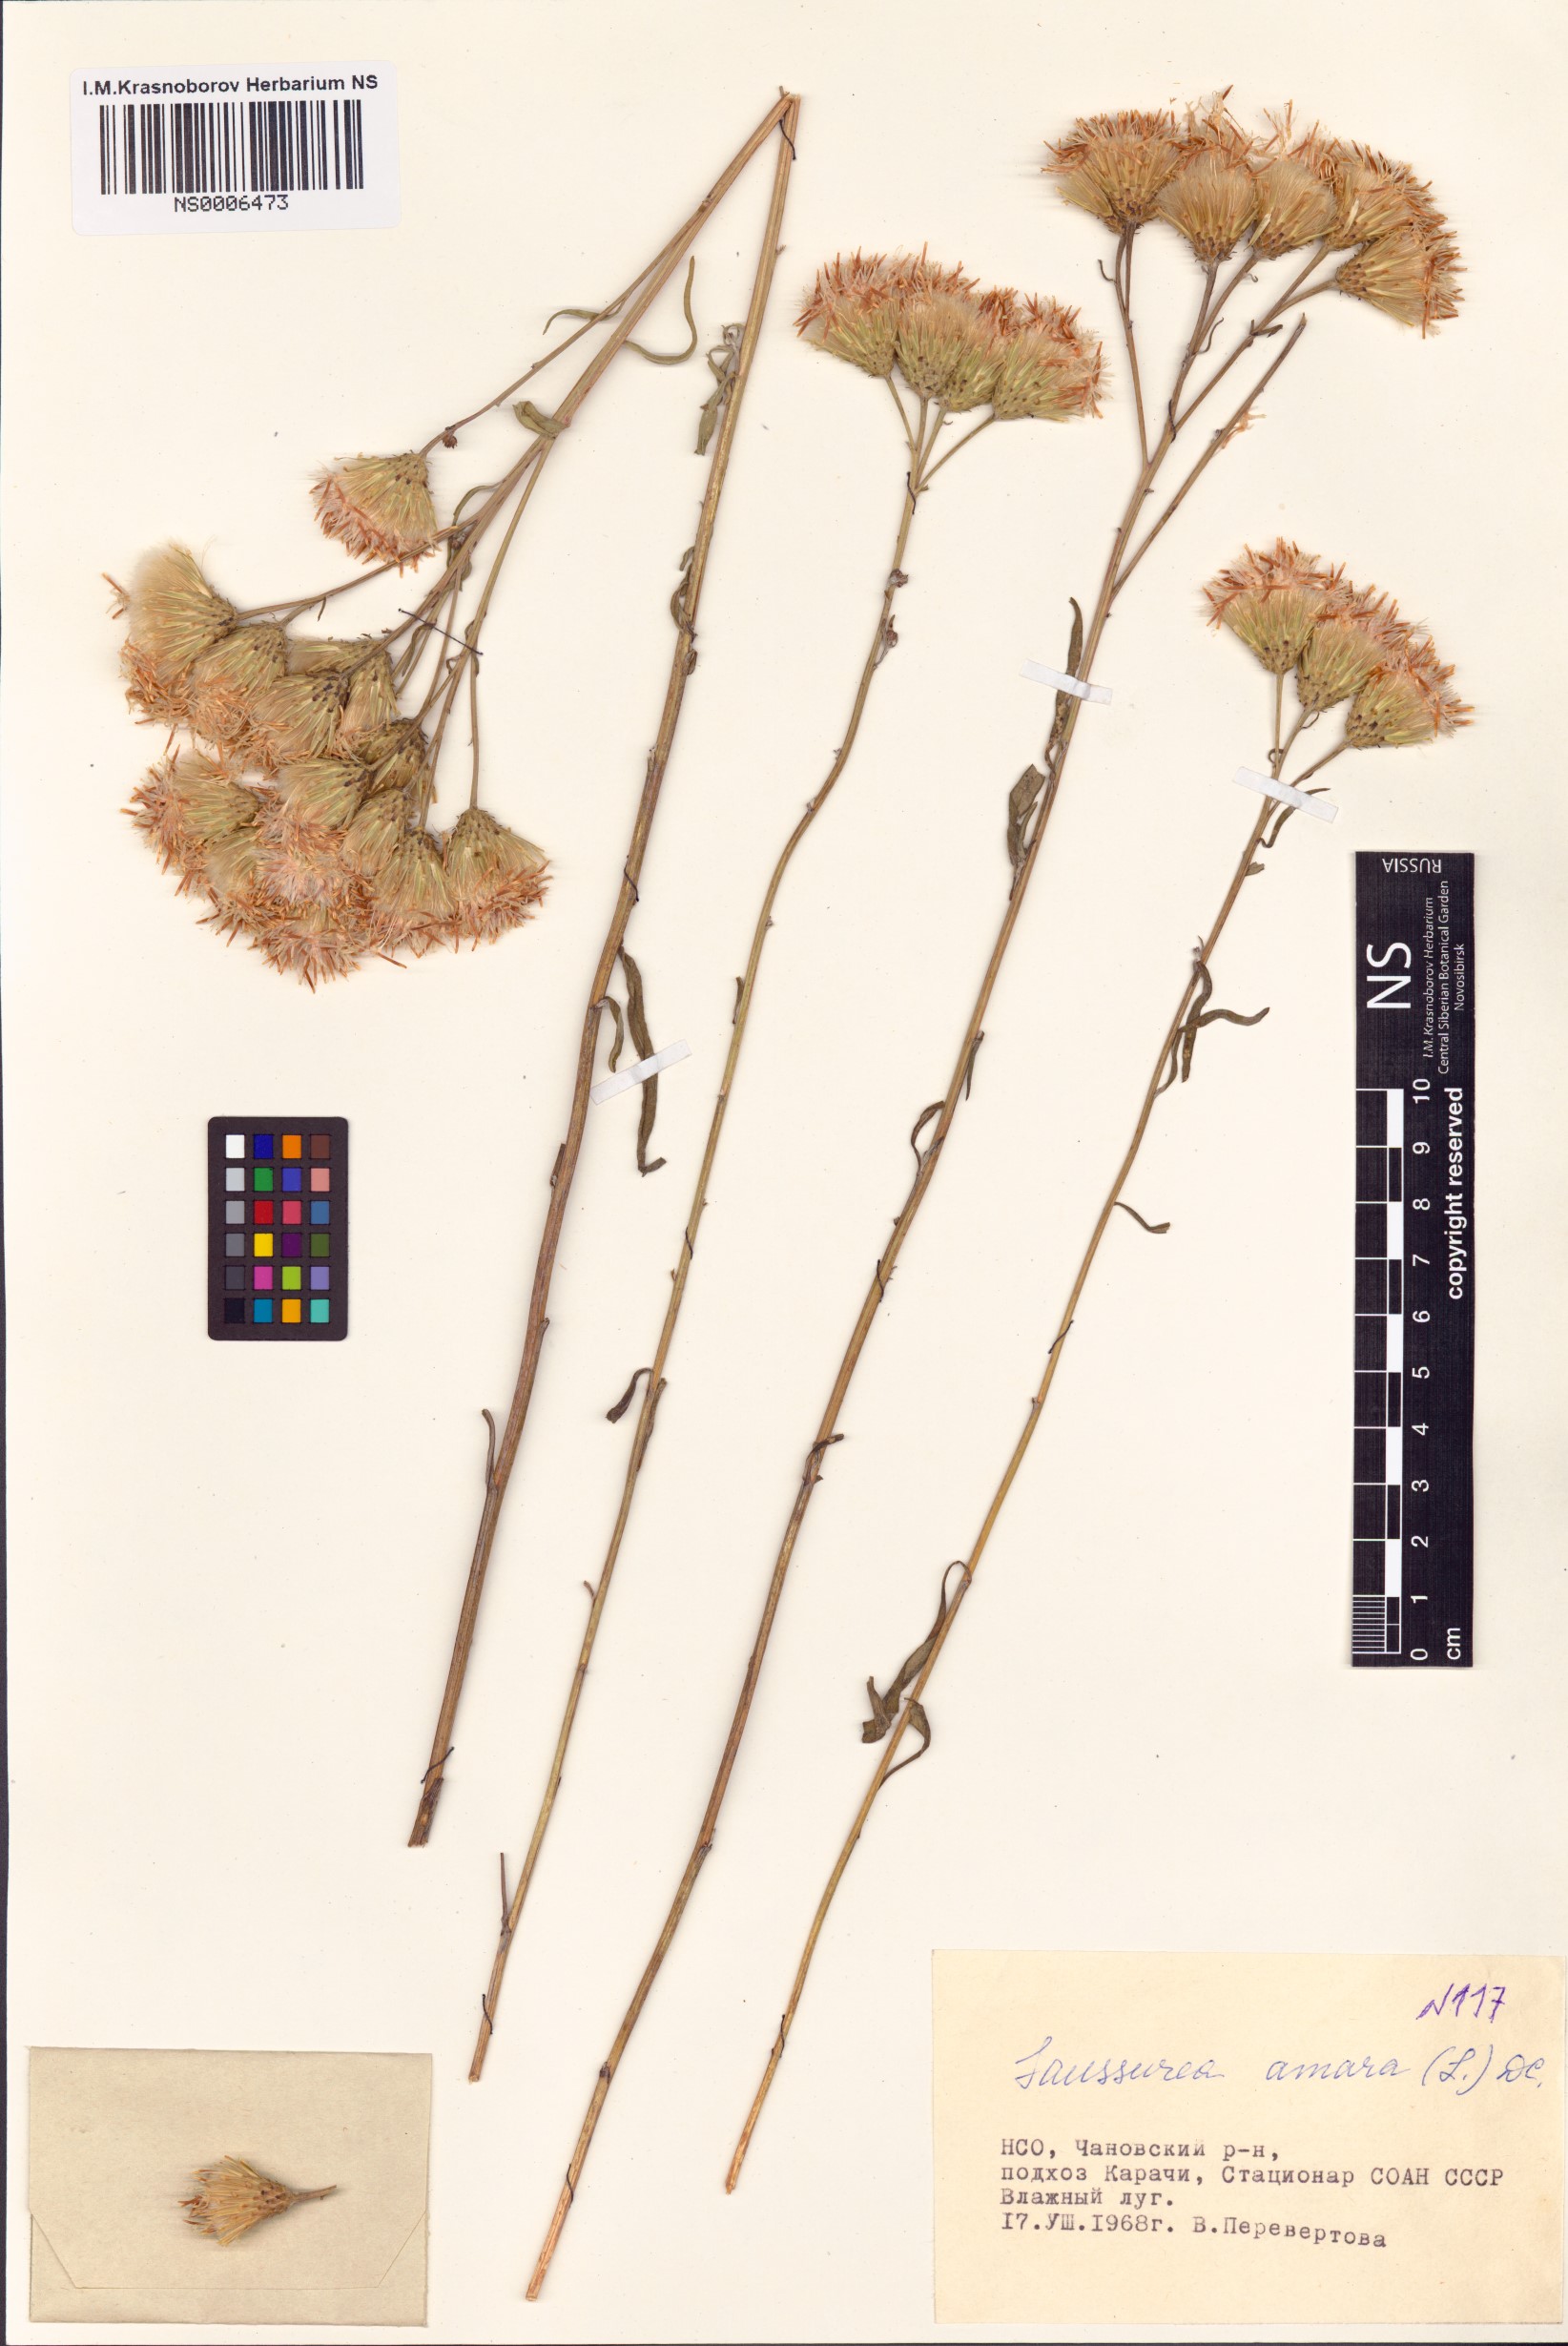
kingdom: Plantae
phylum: Tracheophyta
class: Magnoliopsida
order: Asterales
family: Asteraceae
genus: Saussurea
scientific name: Saussurea amara
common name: Alberta sawwort
